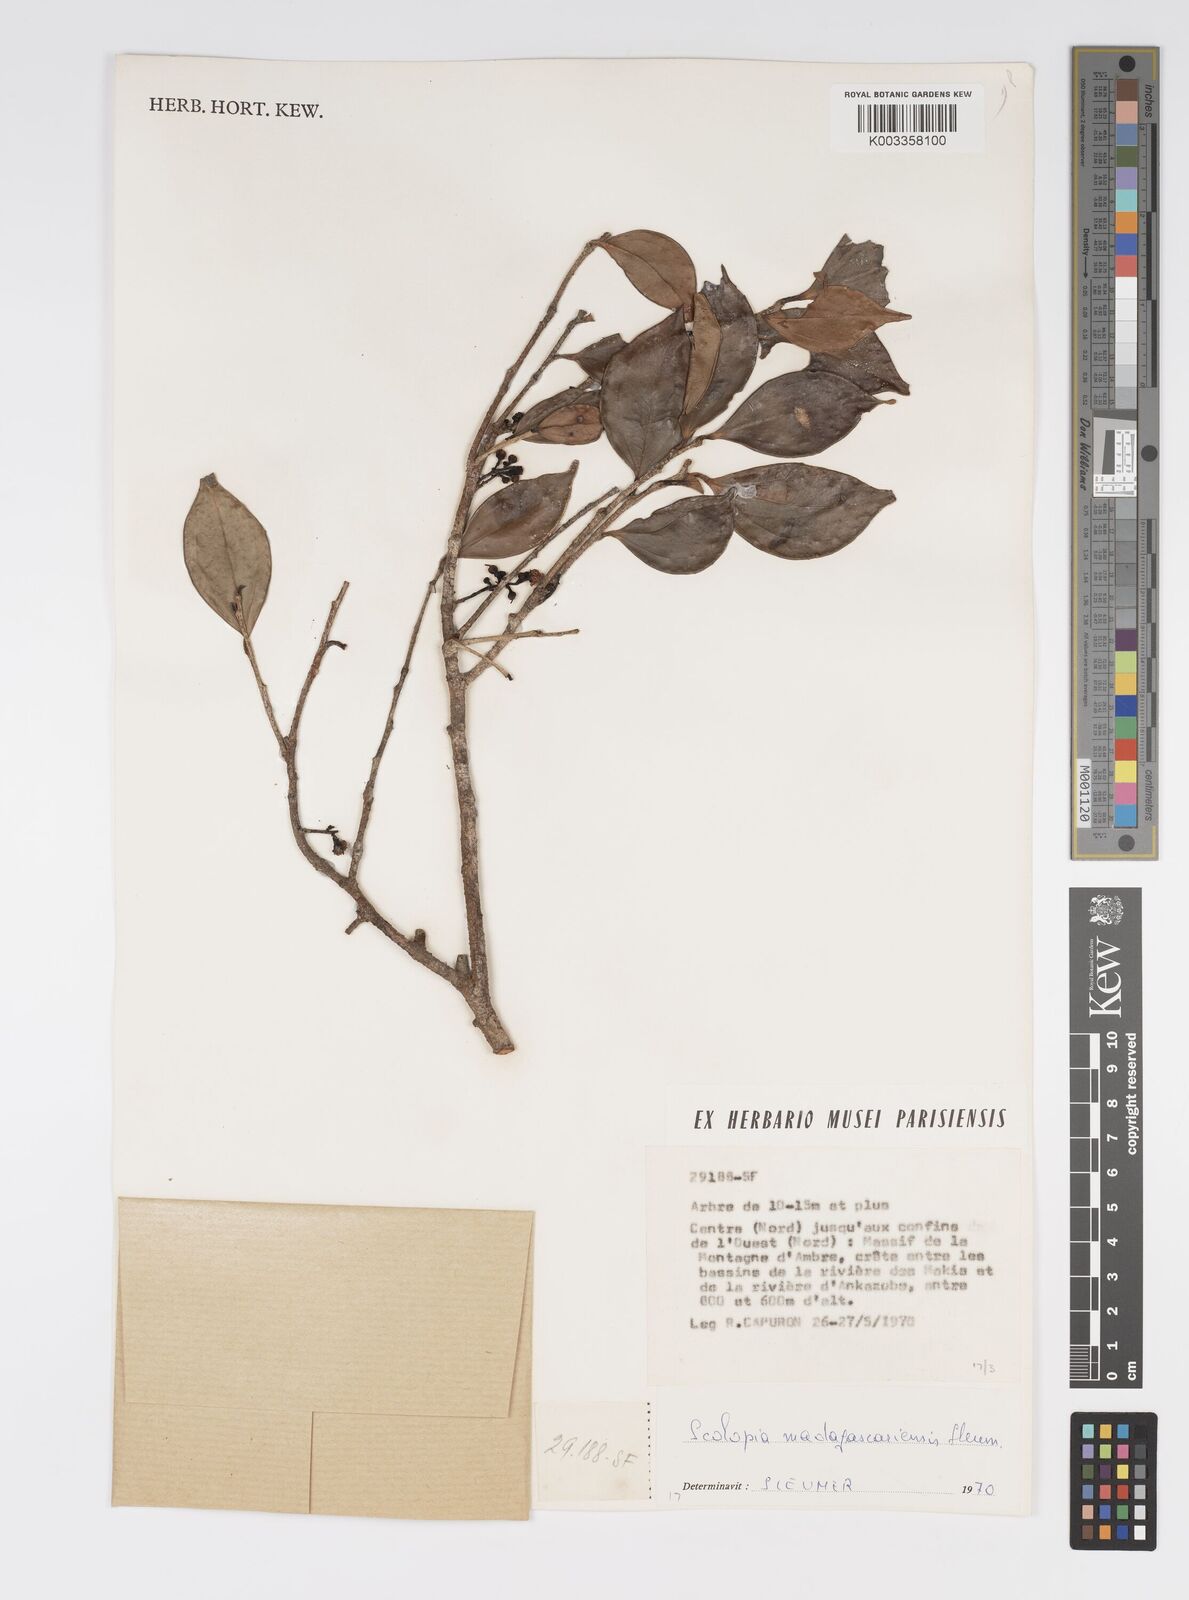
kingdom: Plantae
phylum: Tracheophyta
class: Magnoliopsida
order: Malpighiales
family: Salicaceae
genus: Scolopia
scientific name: Scolopia madagascariensis
